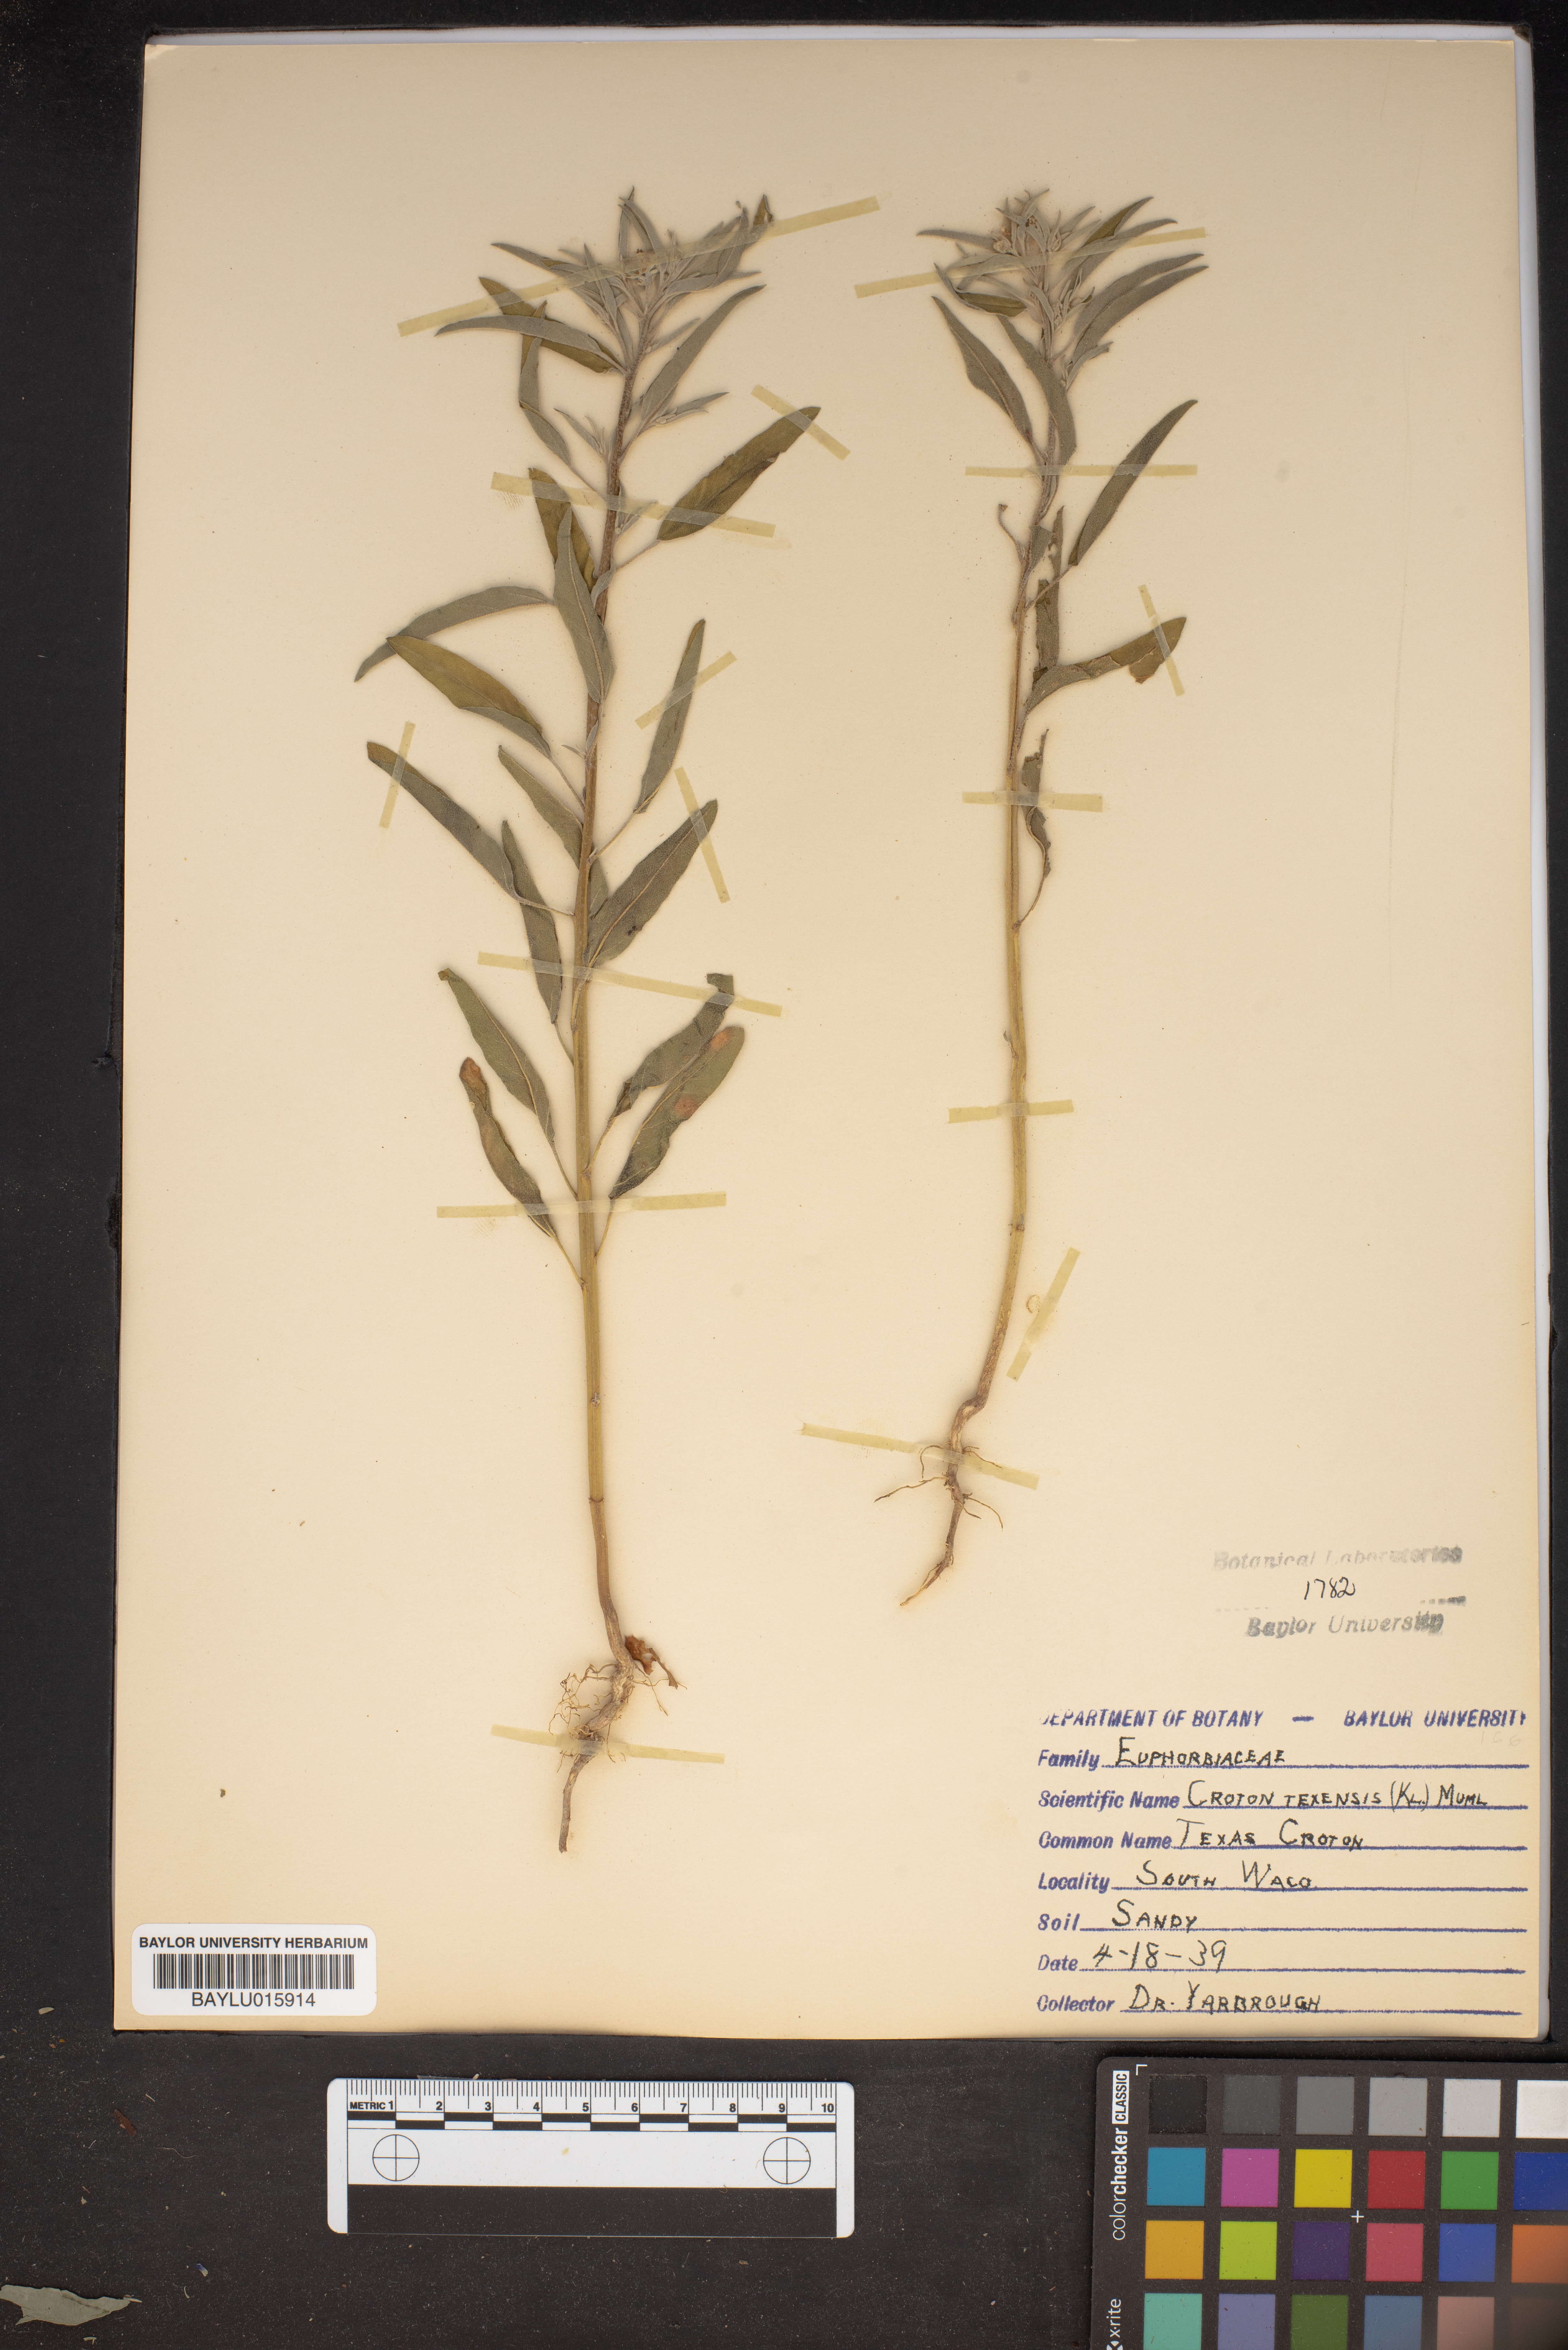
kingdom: Plantae
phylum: Tracheophyta
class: Magnoliopsida
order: Malpighiales
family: Euphorbiaceae
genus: Croton
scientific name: Croton texensis
